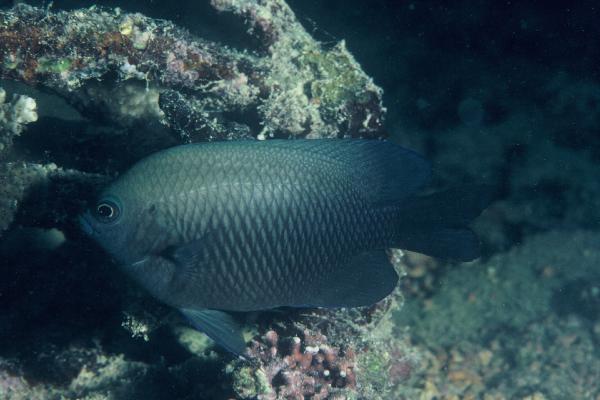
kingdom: Animalia
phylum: Chordata
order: Perciformes
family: Pomacentridae
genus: Pomacentrus
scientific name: Pomacentrus aquilus
